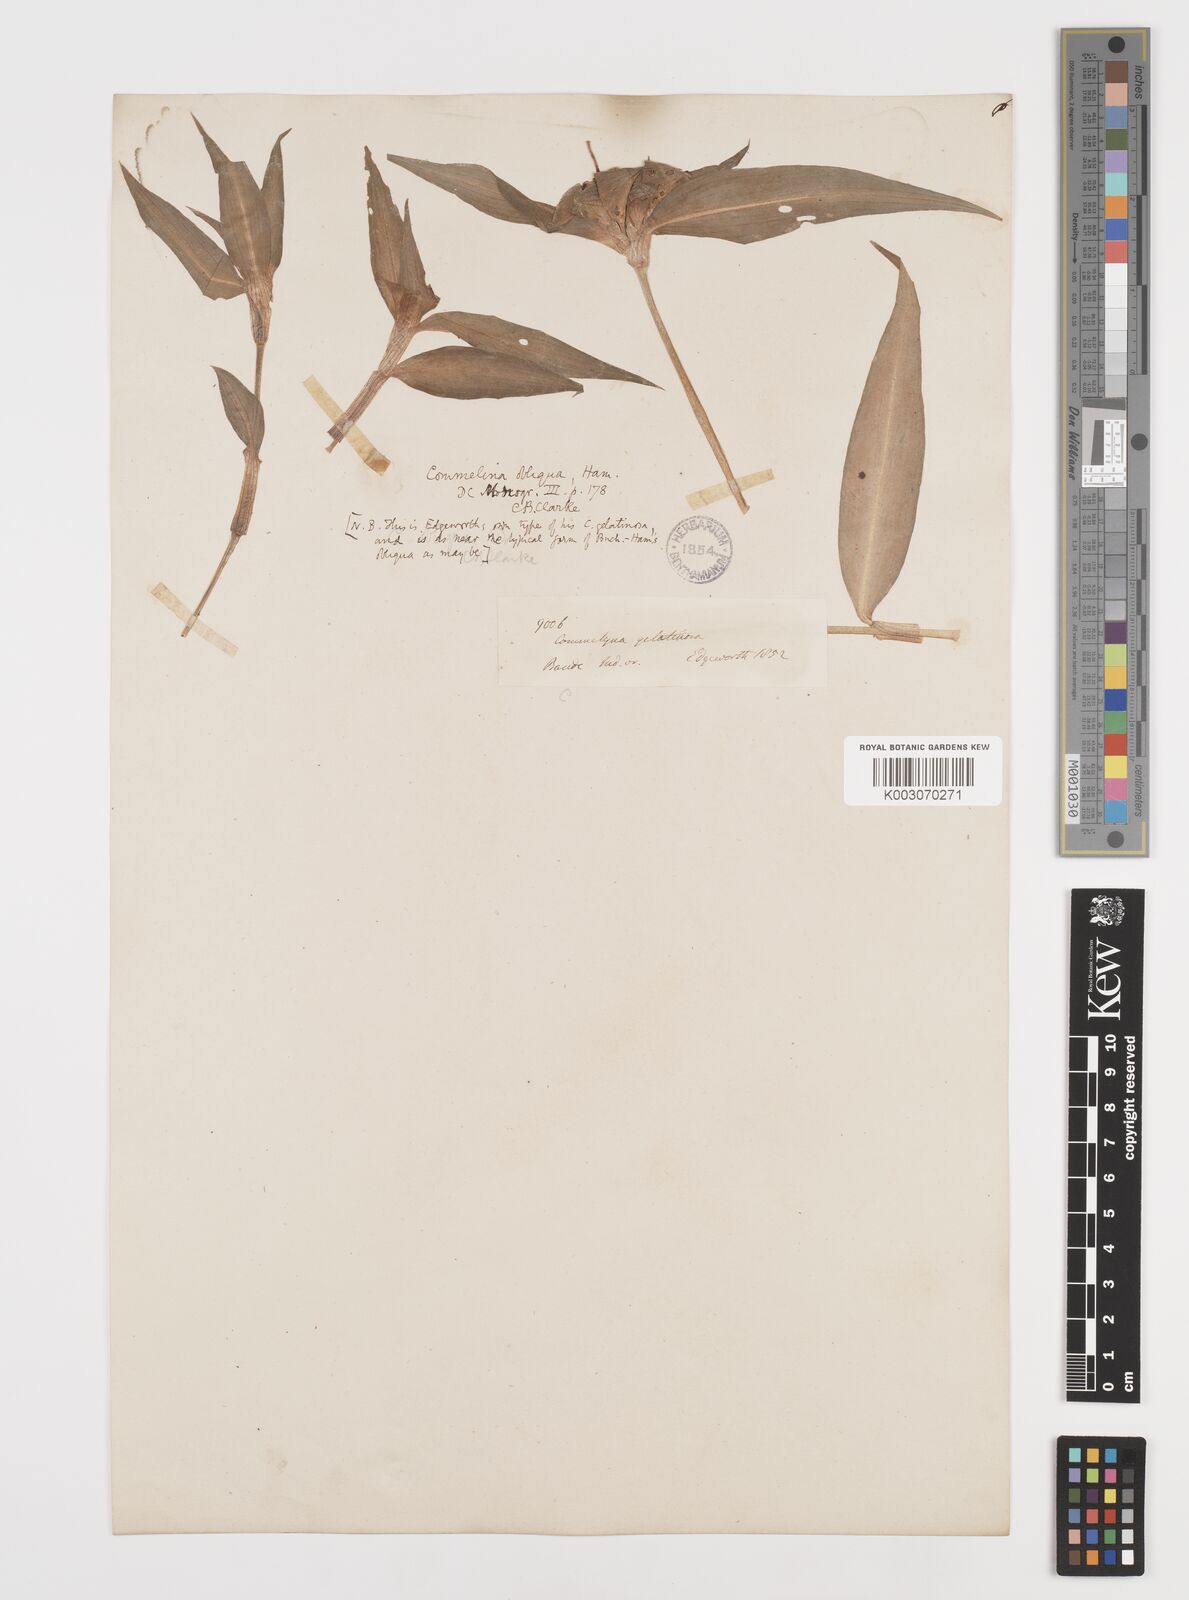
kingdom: Plantae
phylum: Tracheophyta
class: Liliopsida
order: Commelinales
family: Commelinaceae
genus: Commelina
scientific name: Commelina paludosa
